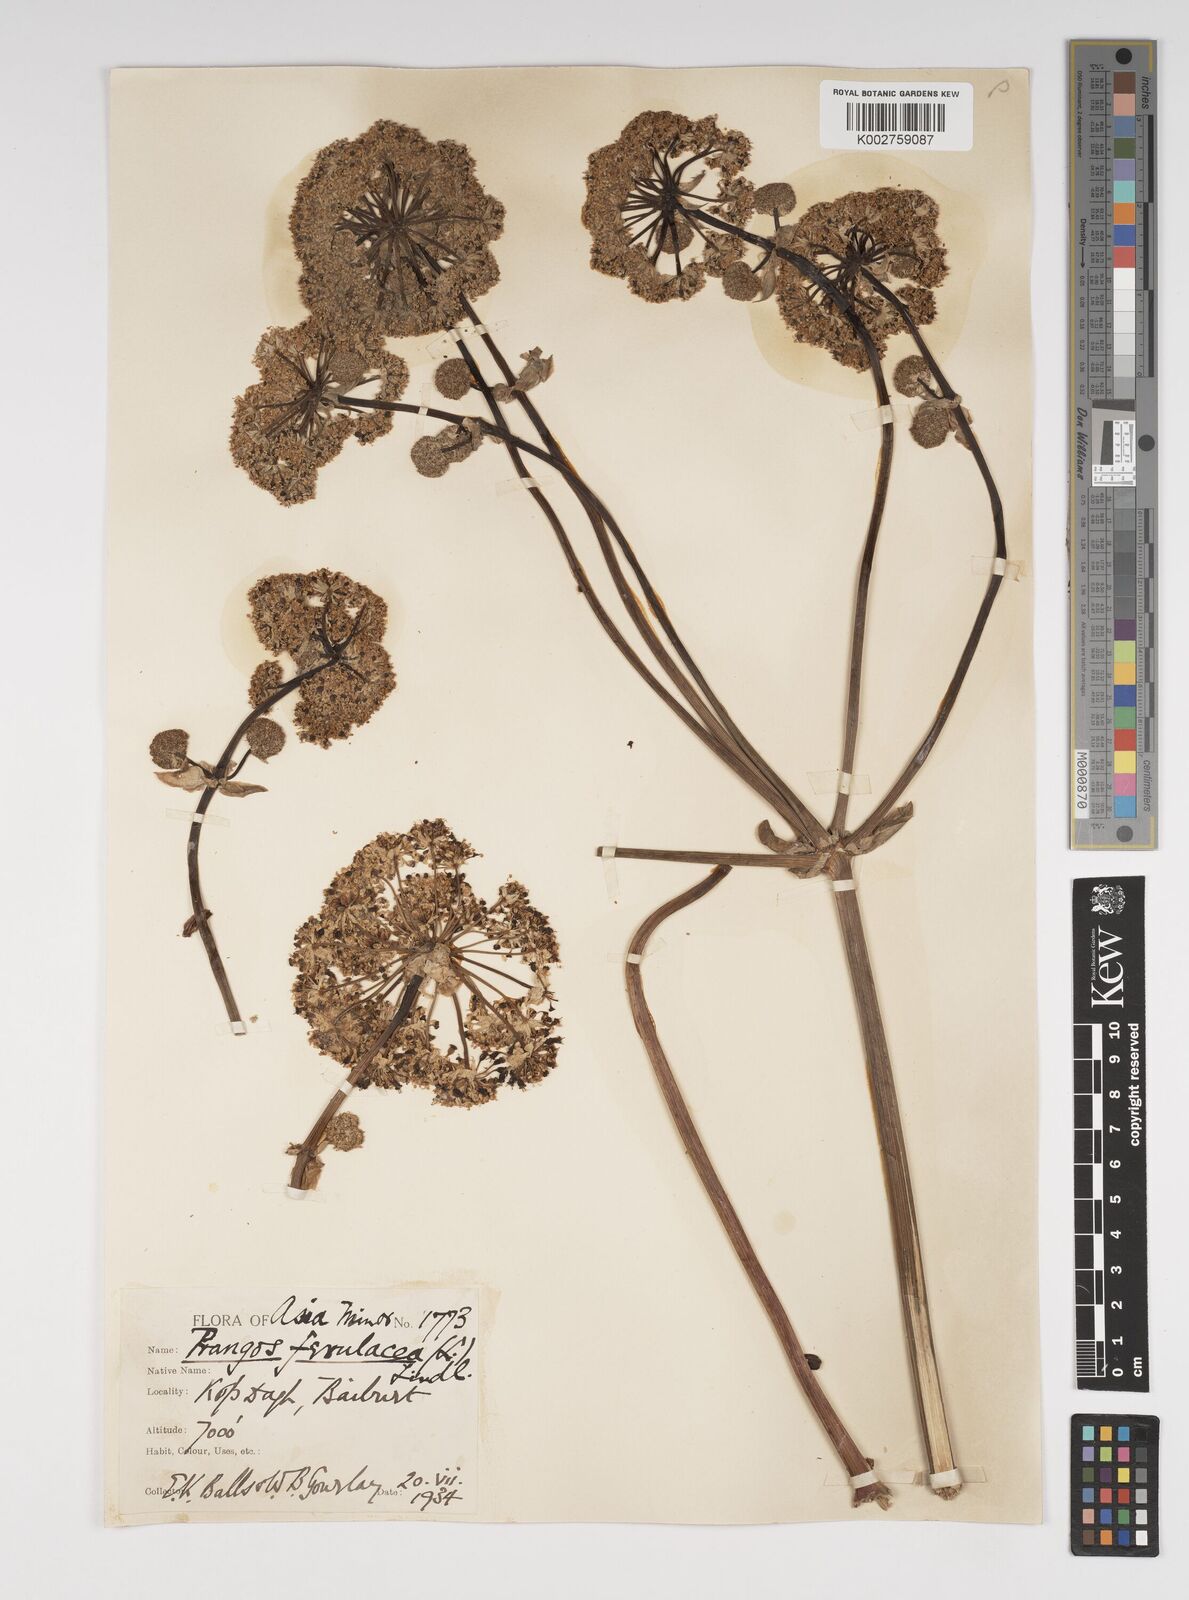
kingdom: Plantae
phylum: Tracheophyta
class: Magnoliopsida
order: Apiales
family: Apiaceae
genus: Prangos
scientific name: Prangos platychlaena
